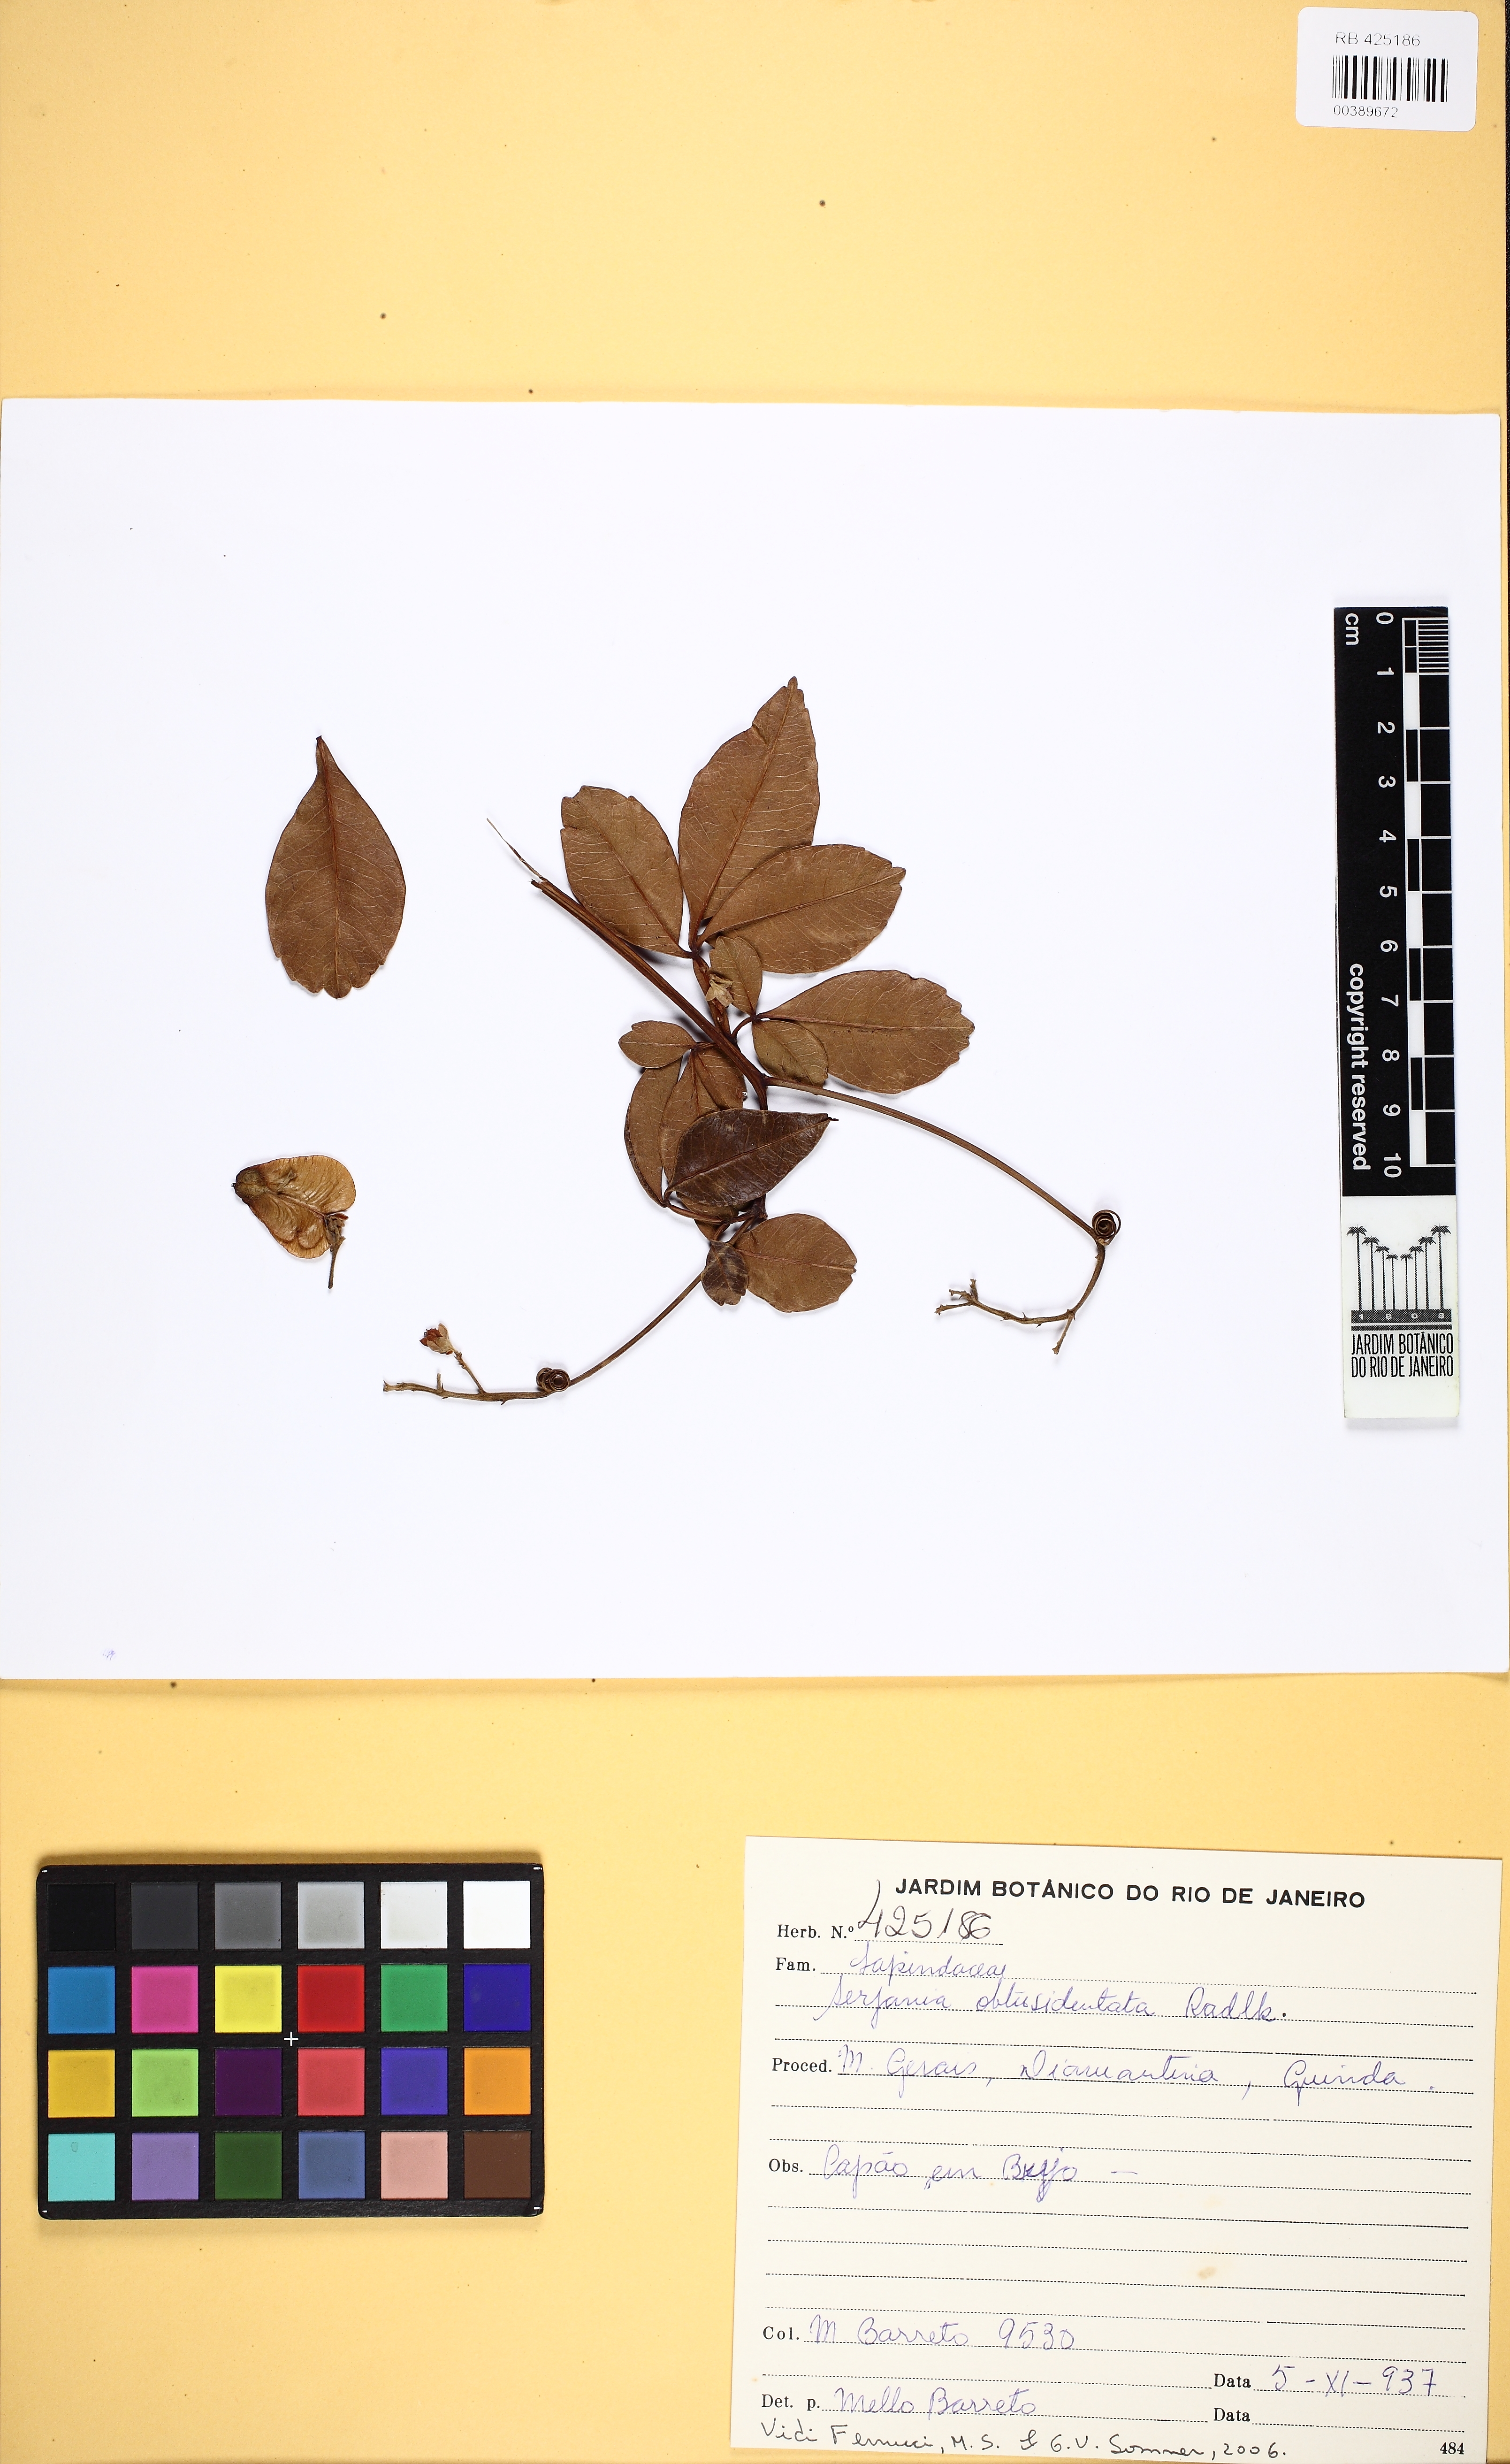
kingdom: Plantae
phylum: Tracheophyta
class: Magnoliopsida
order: Sapindales
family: Sapindaceae
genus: Serjania
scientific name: Serjania obtusidentata
